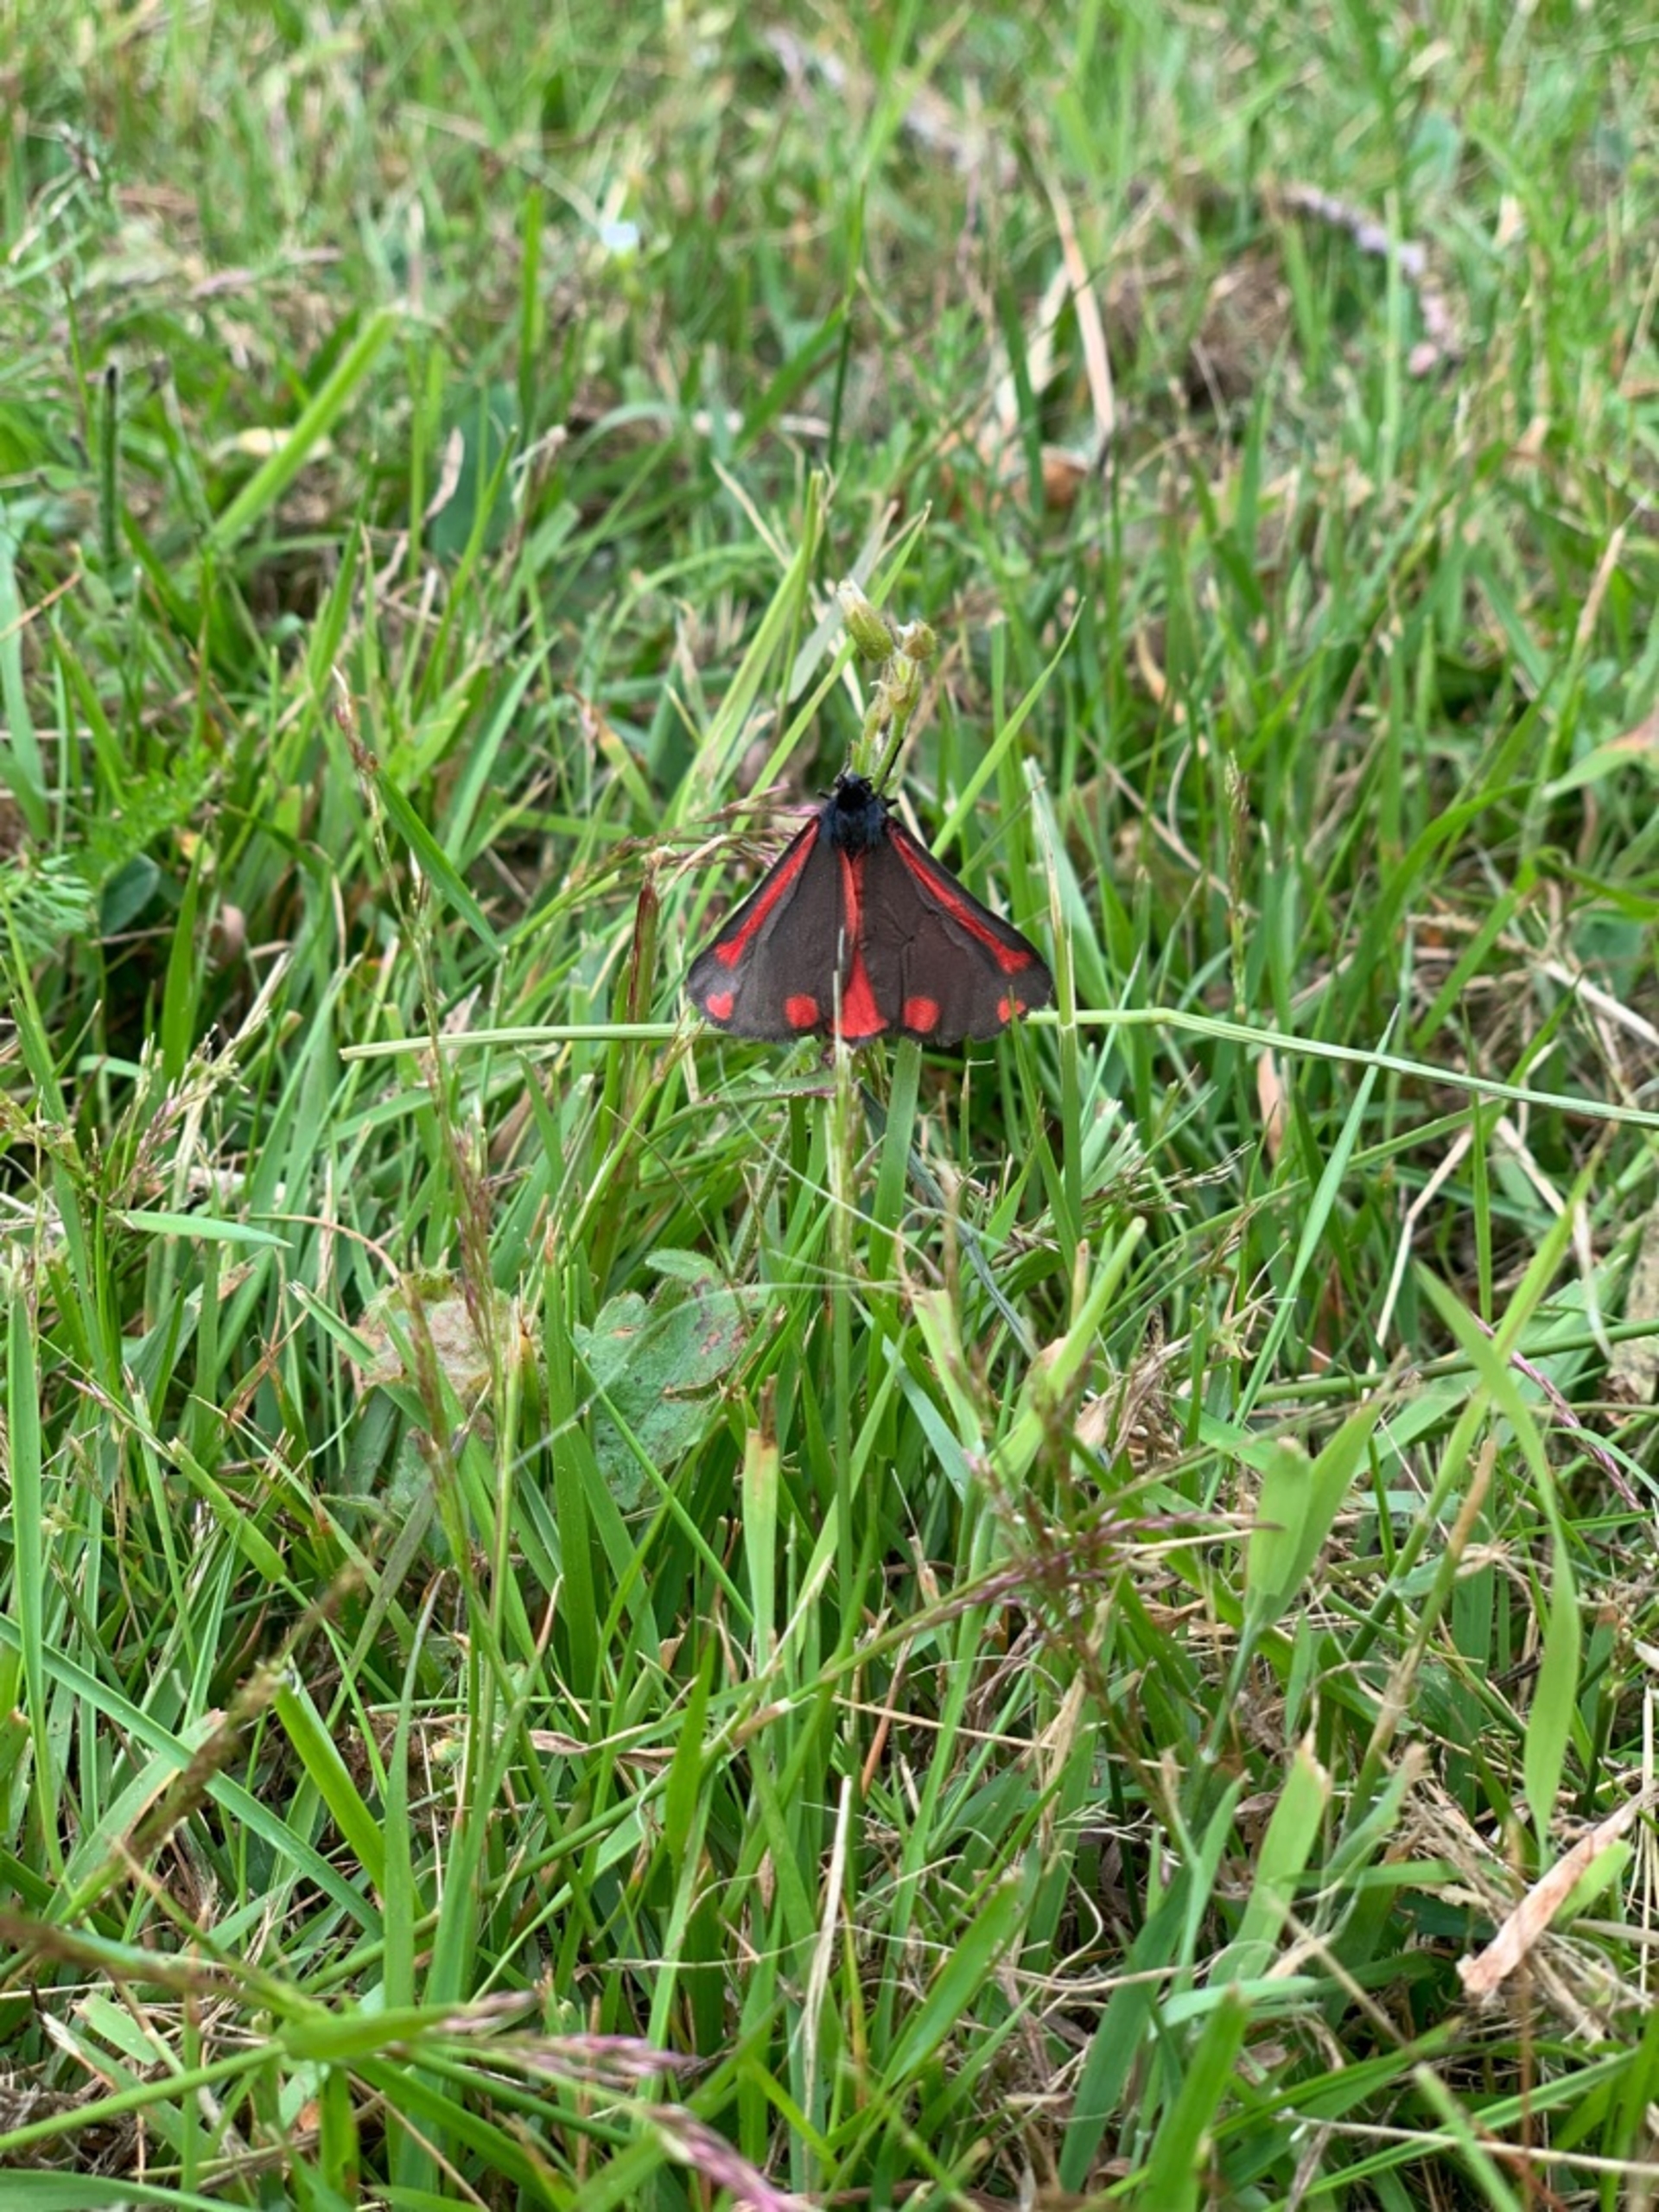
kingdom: Animalia
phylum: Arthropoda
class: Insecta
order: Lepidoptera
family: Erebidae
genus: Tyria
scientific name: Tyria jacobaeae
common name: Blodplet
